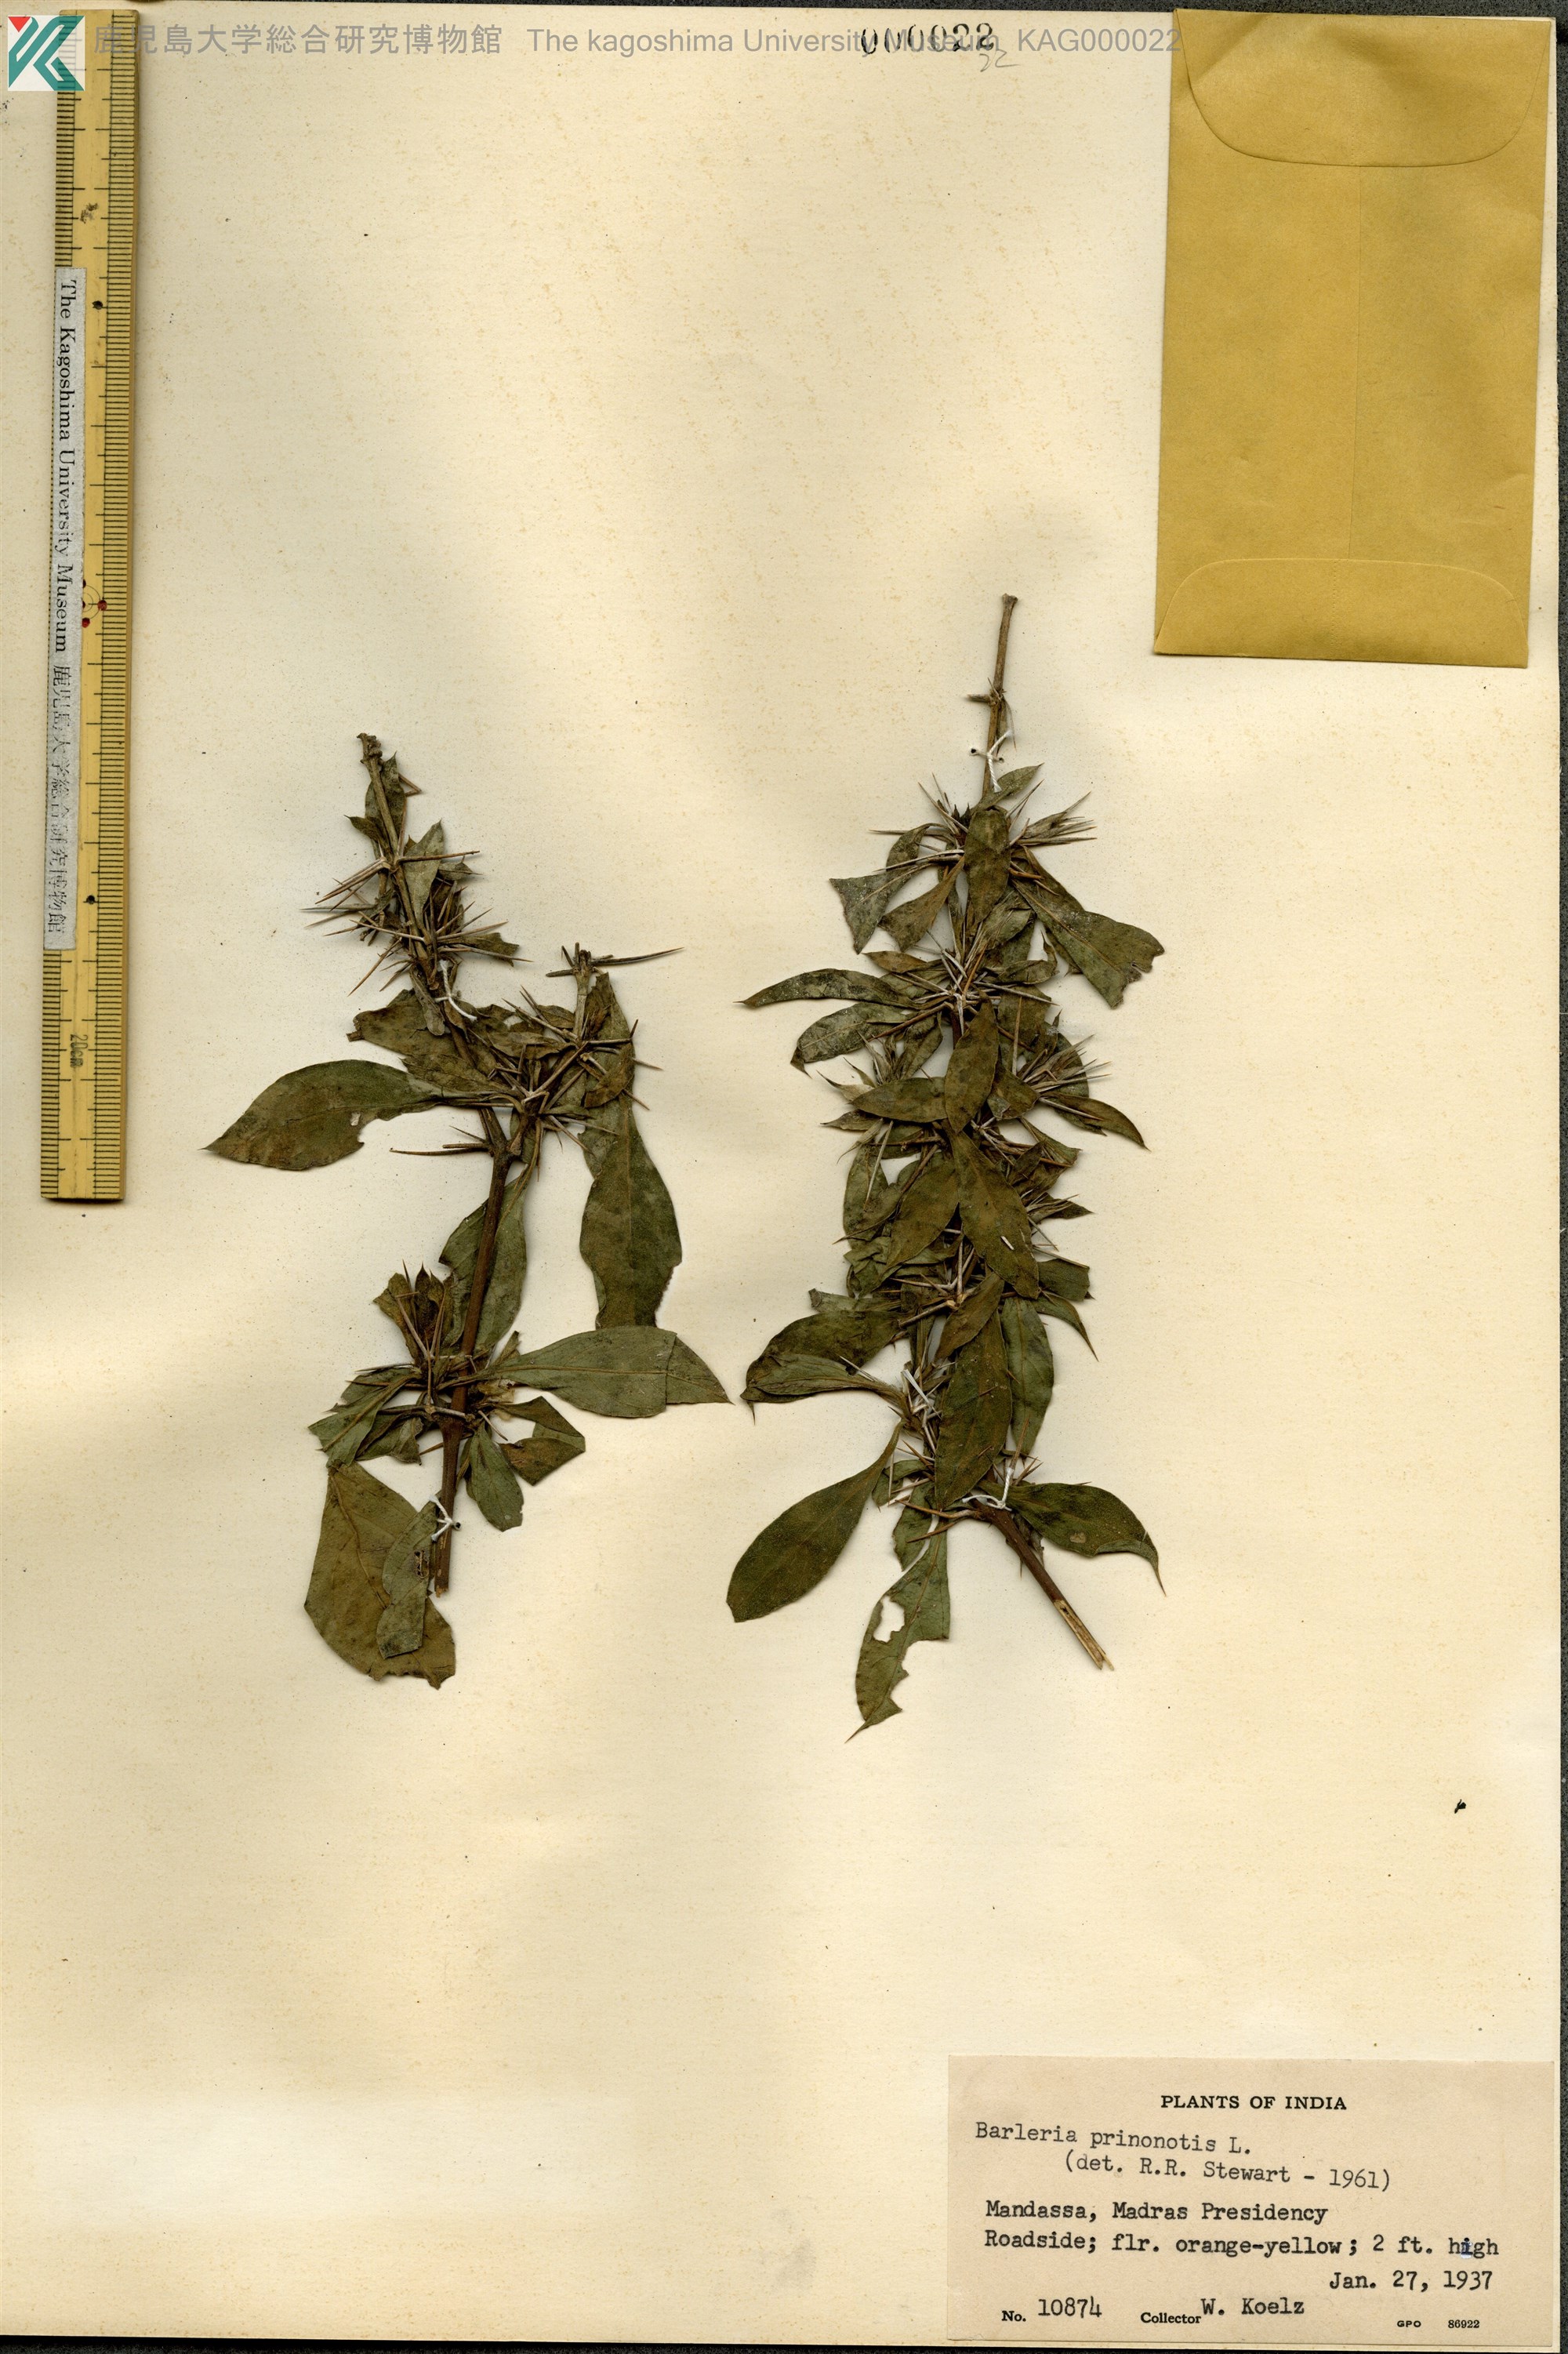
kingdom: Plantae
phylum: Tracheophyta
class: Magnoliopsida
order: Lamiales
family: Acanthaceae
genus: Barleria
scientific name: Barleria prionitis
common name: Barleria
